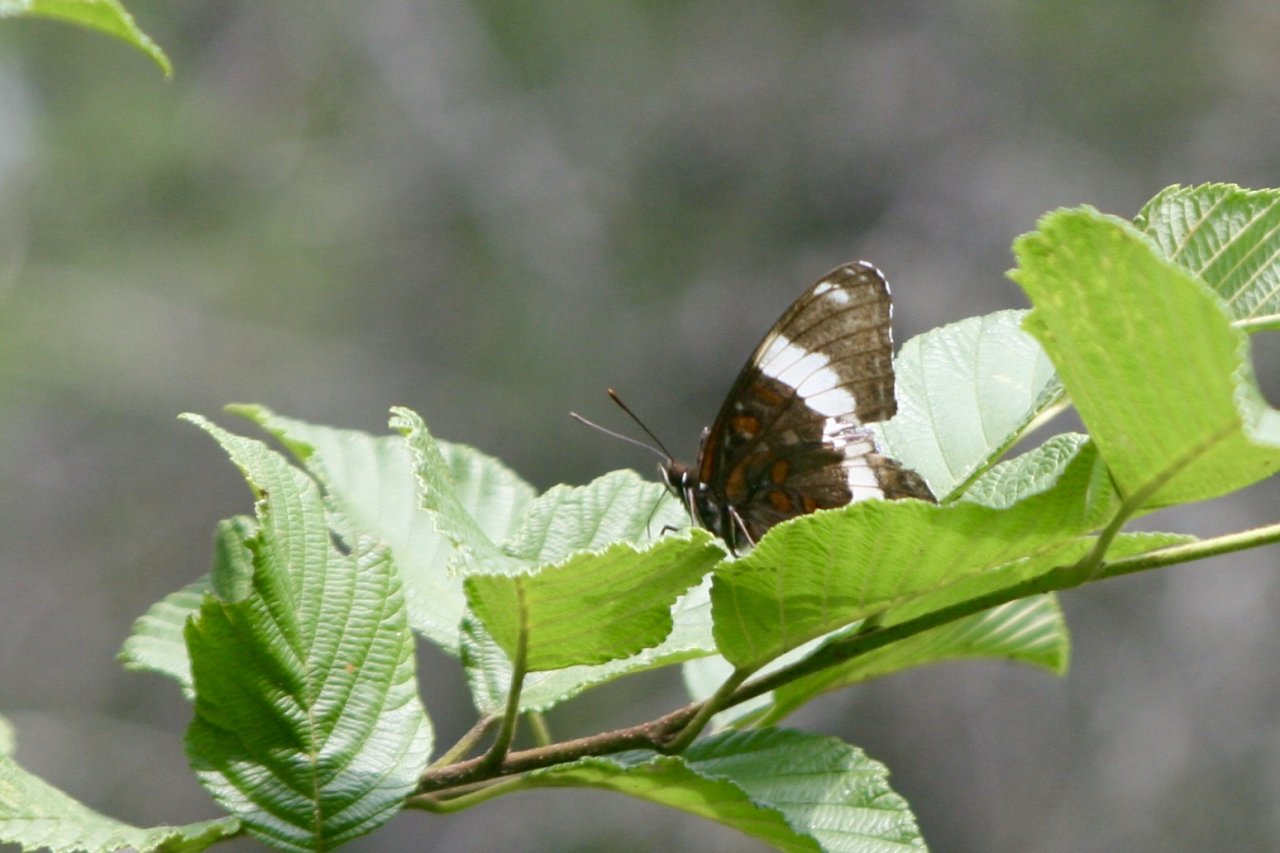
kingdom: Animalia
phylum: Arthropoda
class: Insecta
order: Lepidoptera
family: Nymphalidae
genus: Limenitis
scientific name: Limenitis arthemis
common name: Red-spotted Admiral
